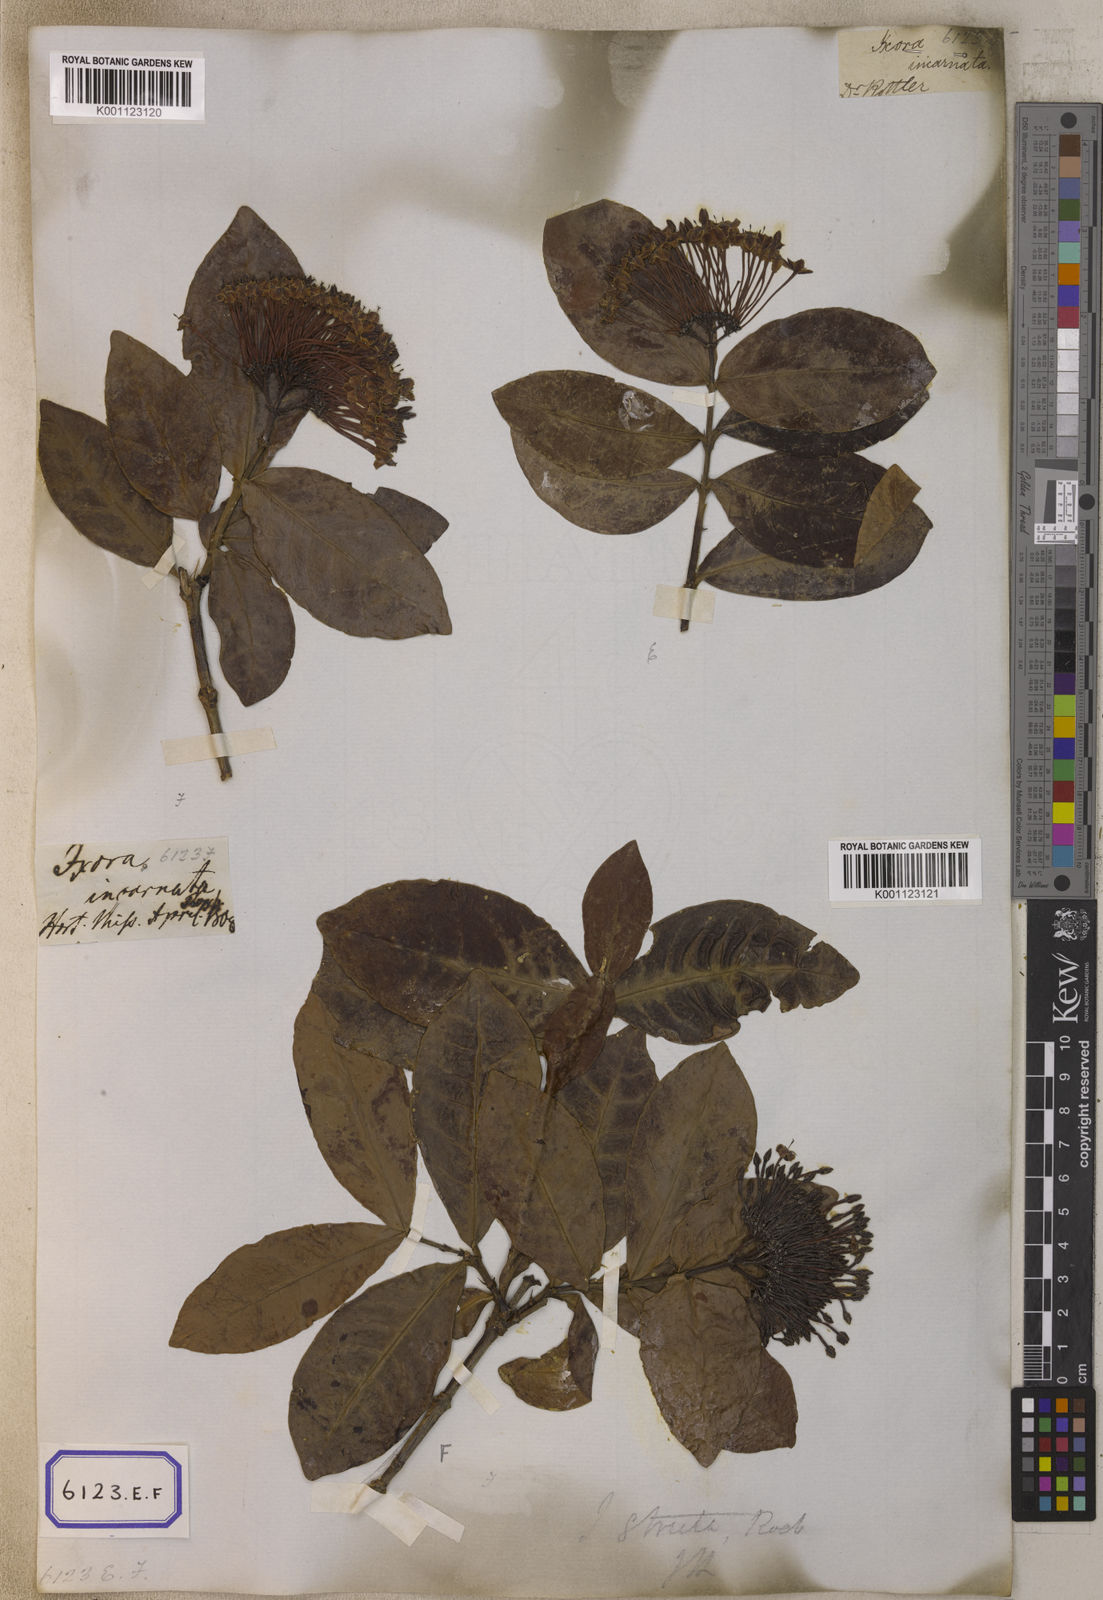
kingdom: Plantae
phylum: Tracheophyta
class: Magnoliopsida
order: Gentianales
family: Rubiaceae
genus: Ixora
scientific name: Ixora
